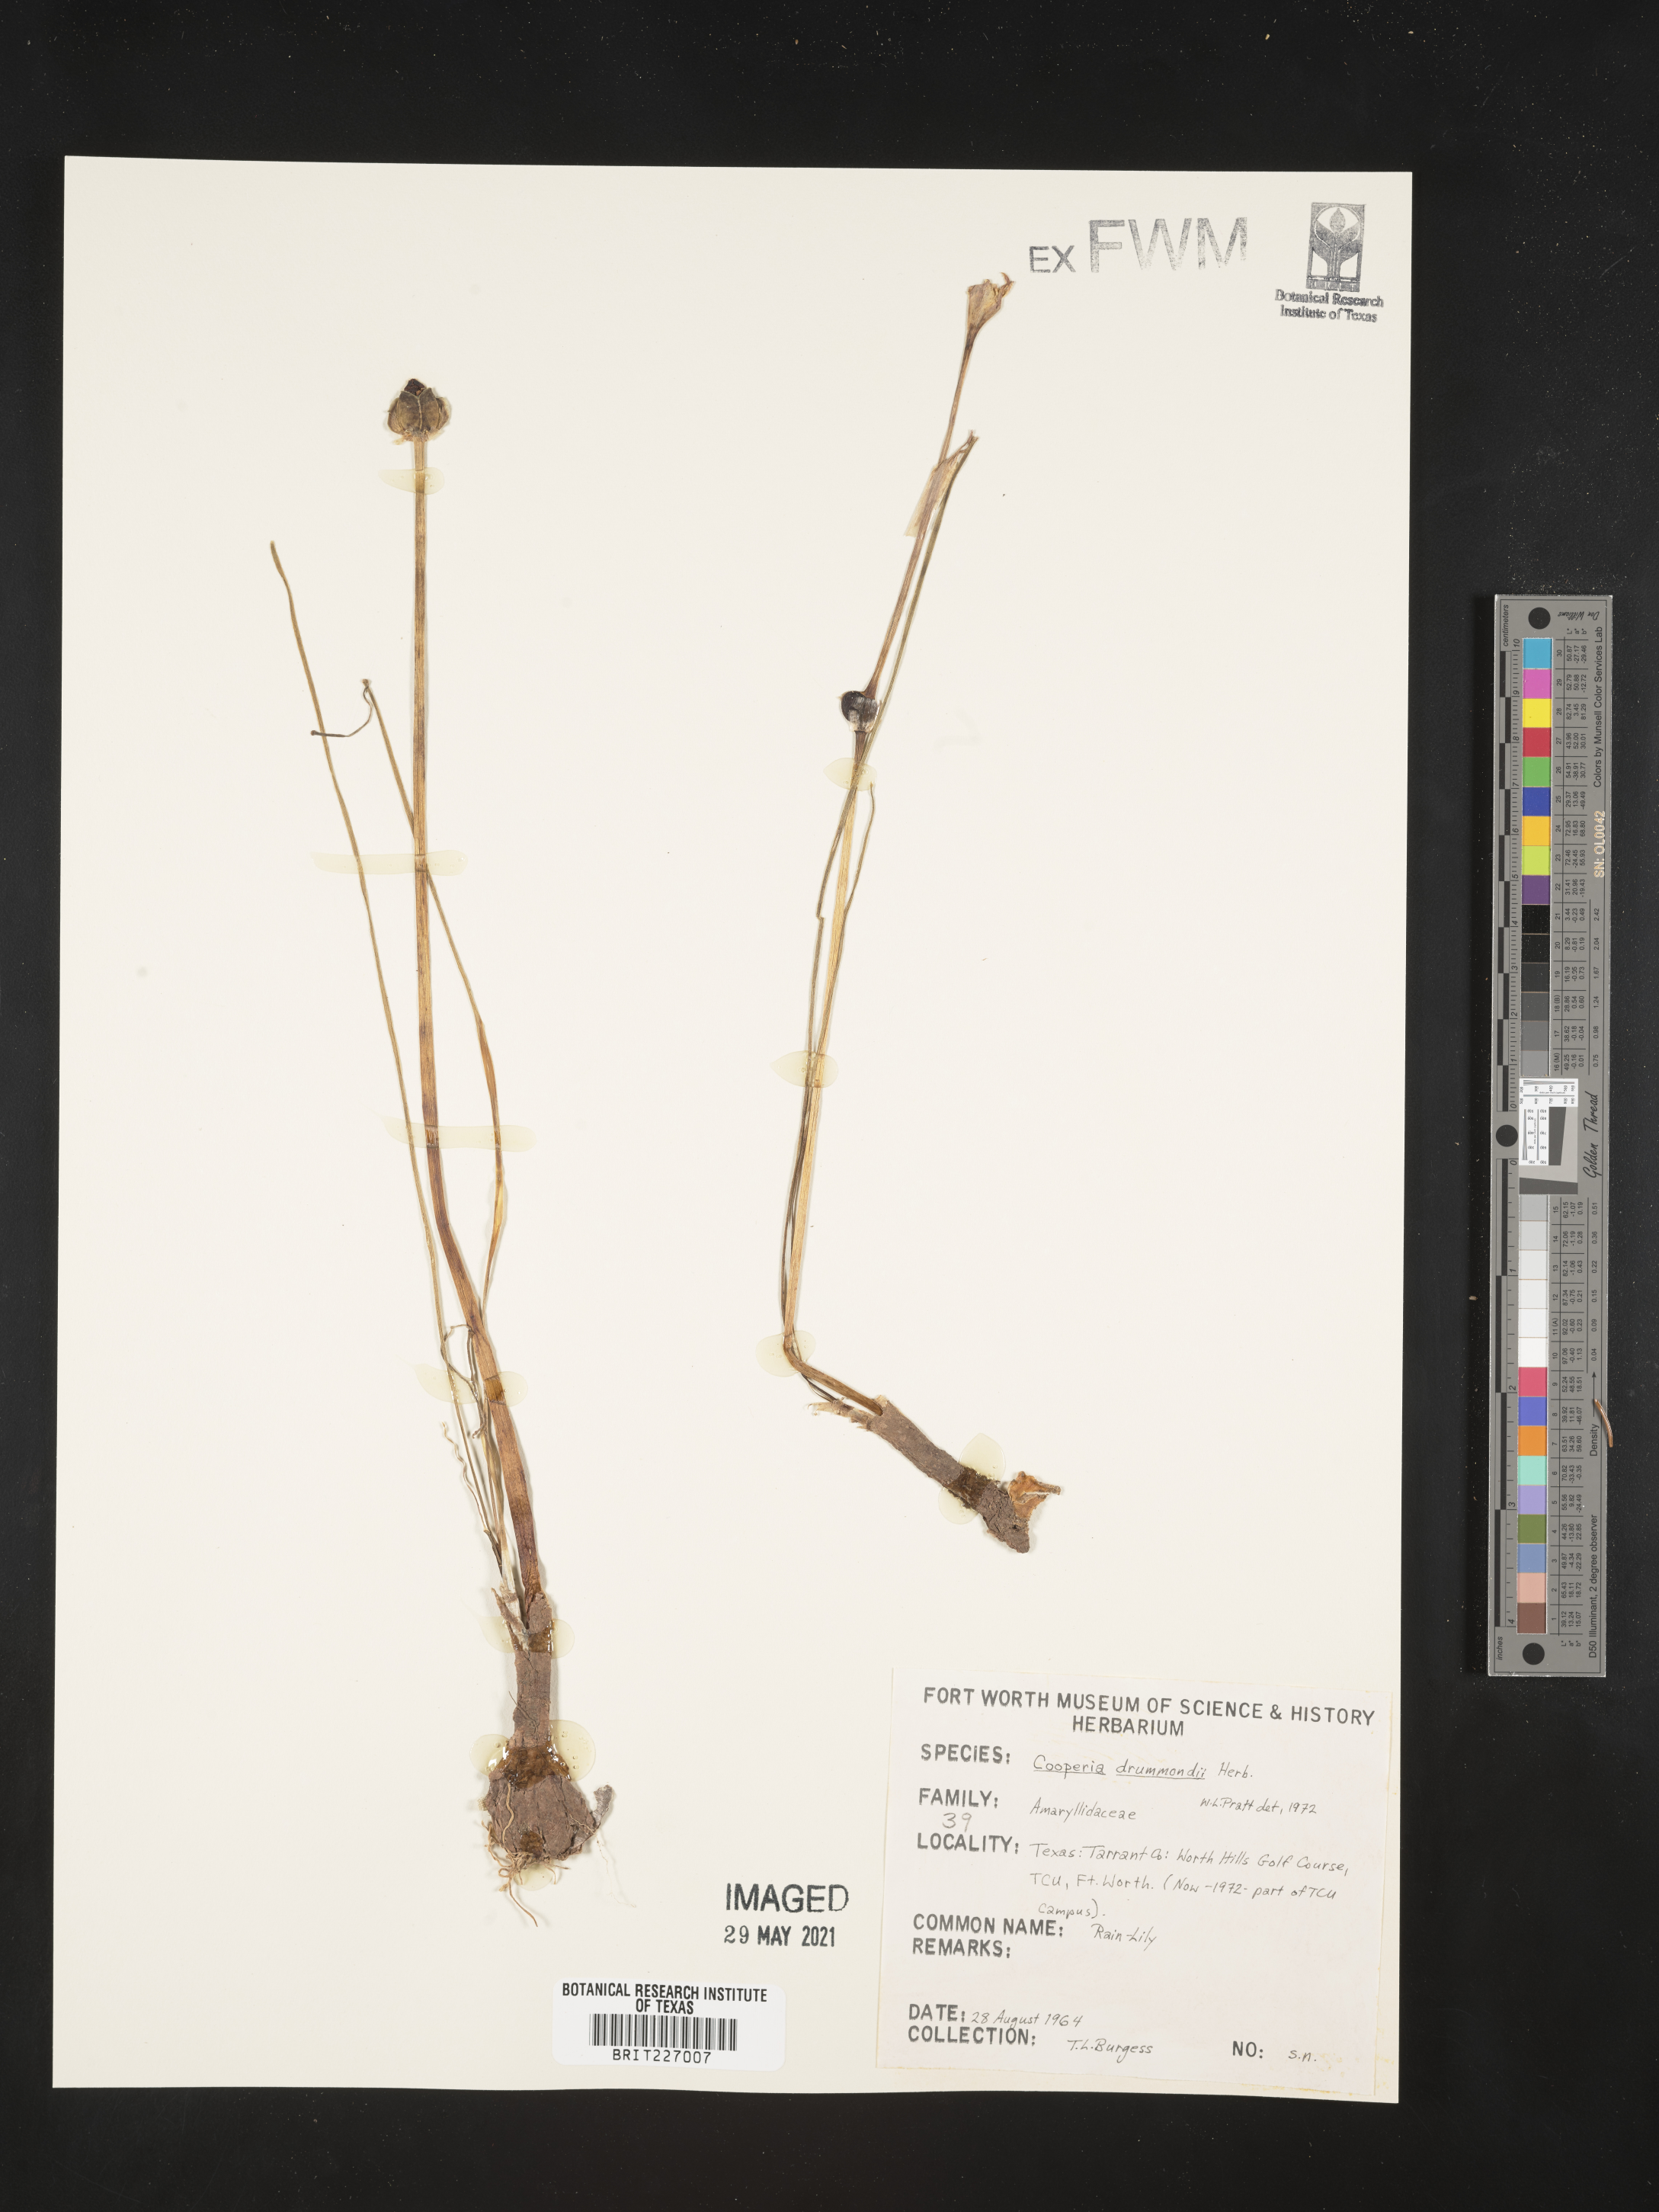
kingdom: Plantae
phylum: Tracheophyta
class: Liliopsida
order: Asparagales
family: Amaryllidaceae
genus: Zephyranthes
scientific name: Zephyranthes chlorosolen
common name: Evening rain-lily
